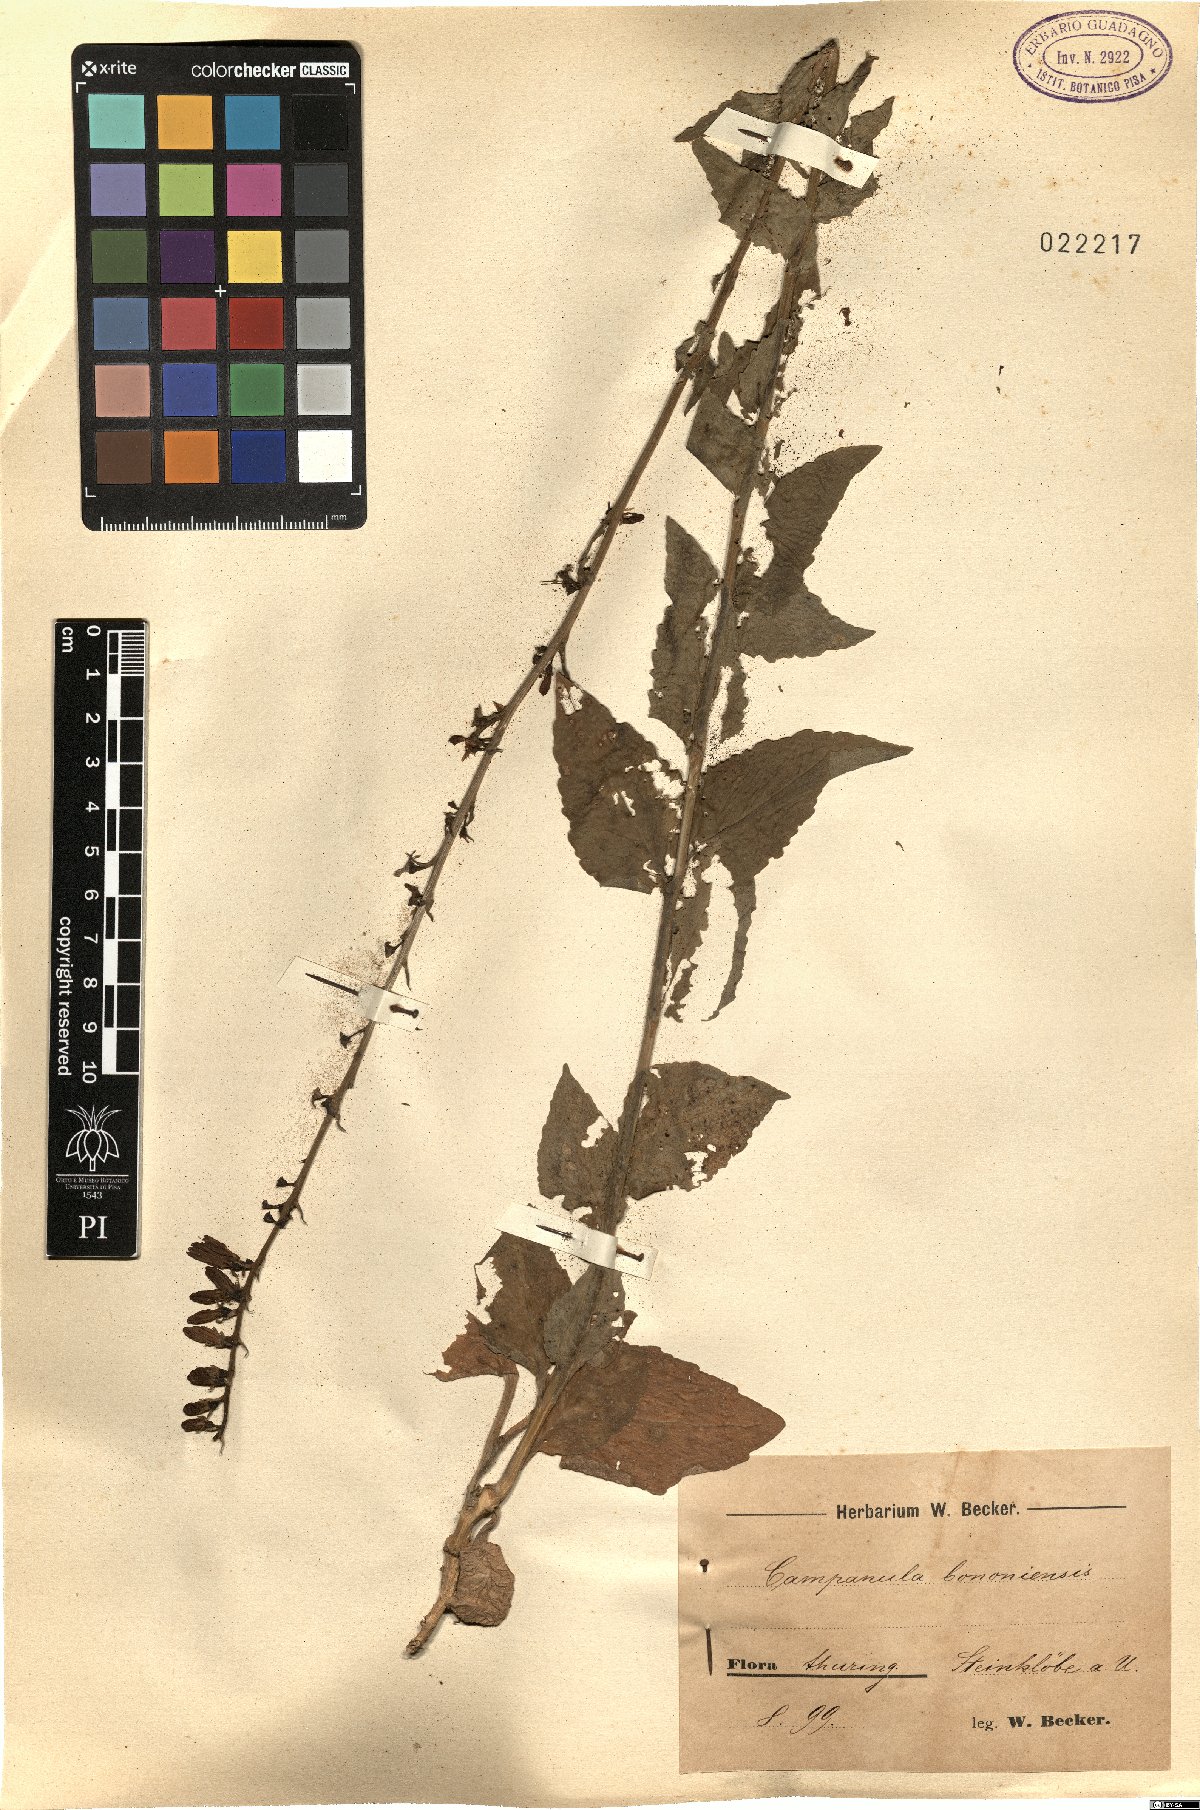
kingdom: Plantae
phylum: Tracheophyta
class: Magnoliopsida
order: Asterales
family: Campanulaceae
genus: Campanula
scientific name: Campanula bononiensis
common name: Pale bellflower
